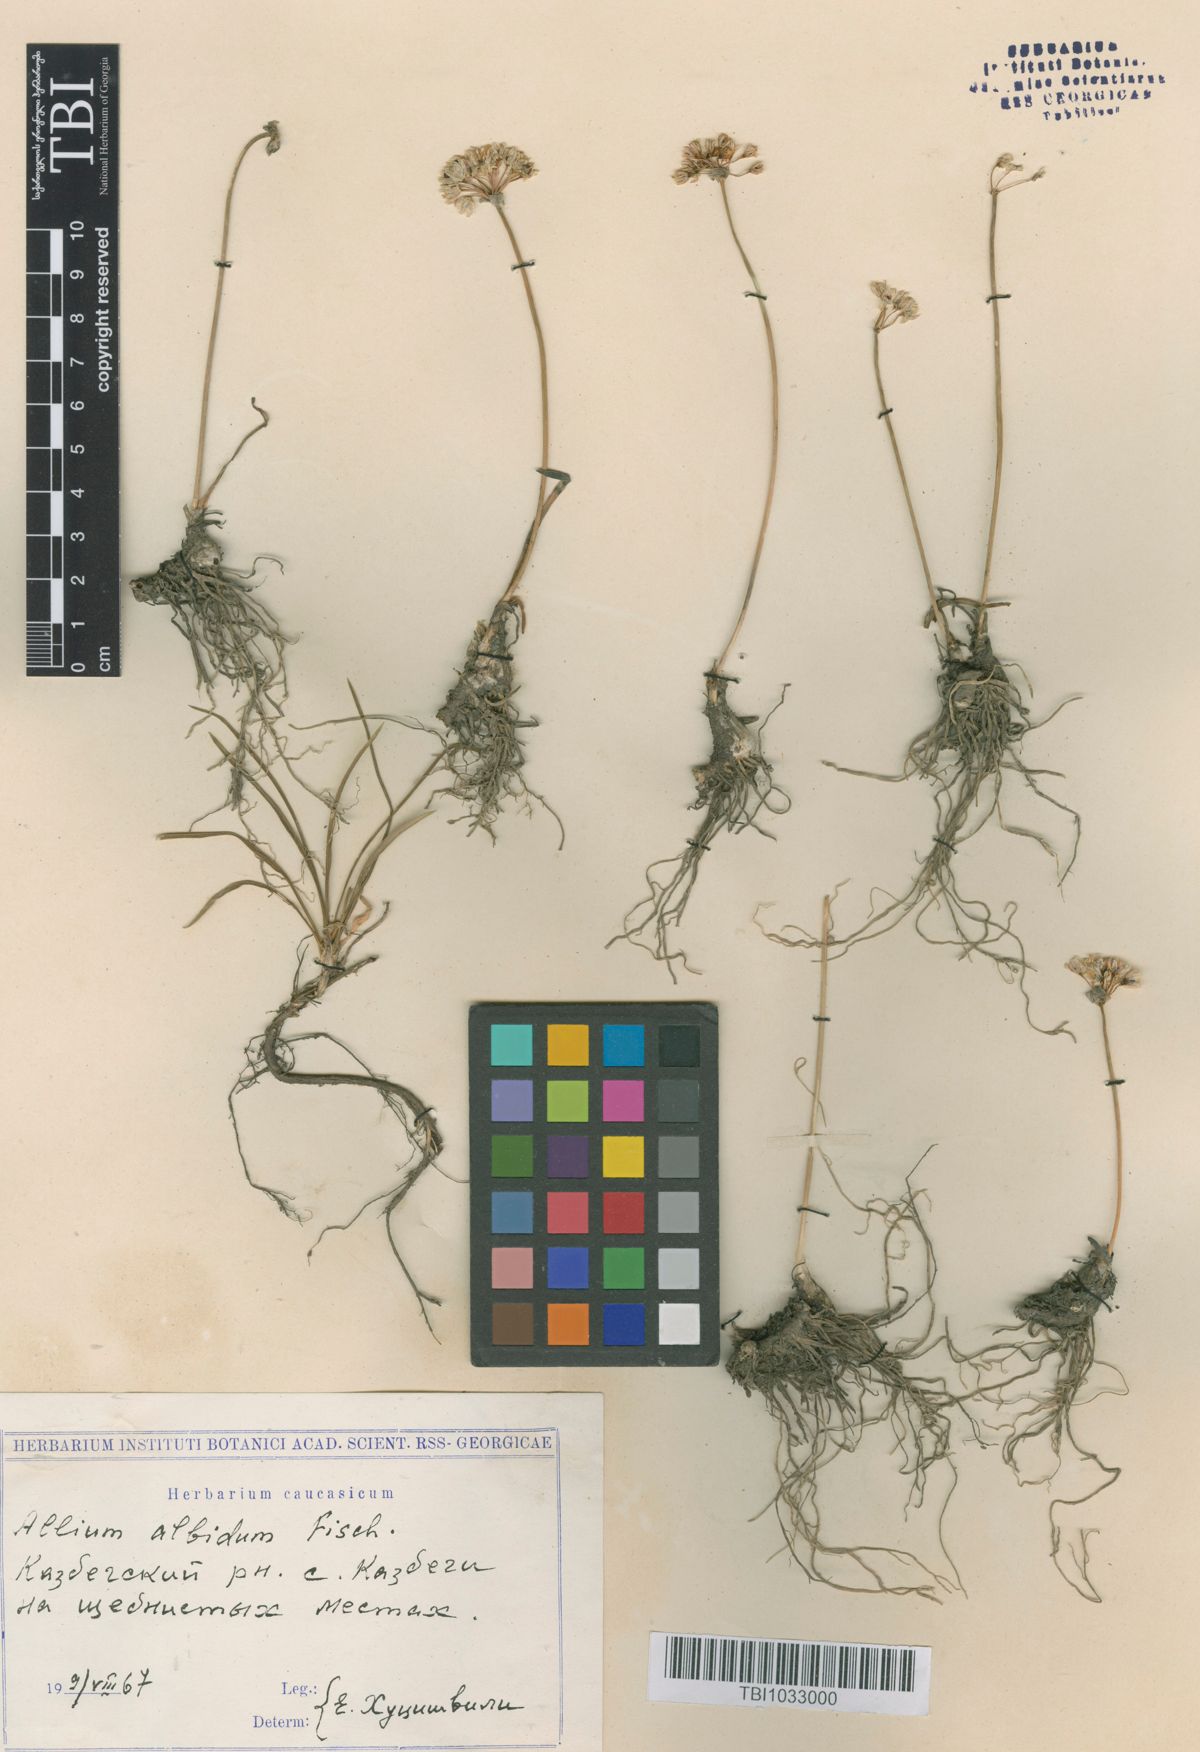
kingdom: Plantae
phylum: Tracheophyta
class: Liliopsida
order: Asparagales
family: Amaryllidaceae
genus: Allium
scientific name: Allium denudatum
